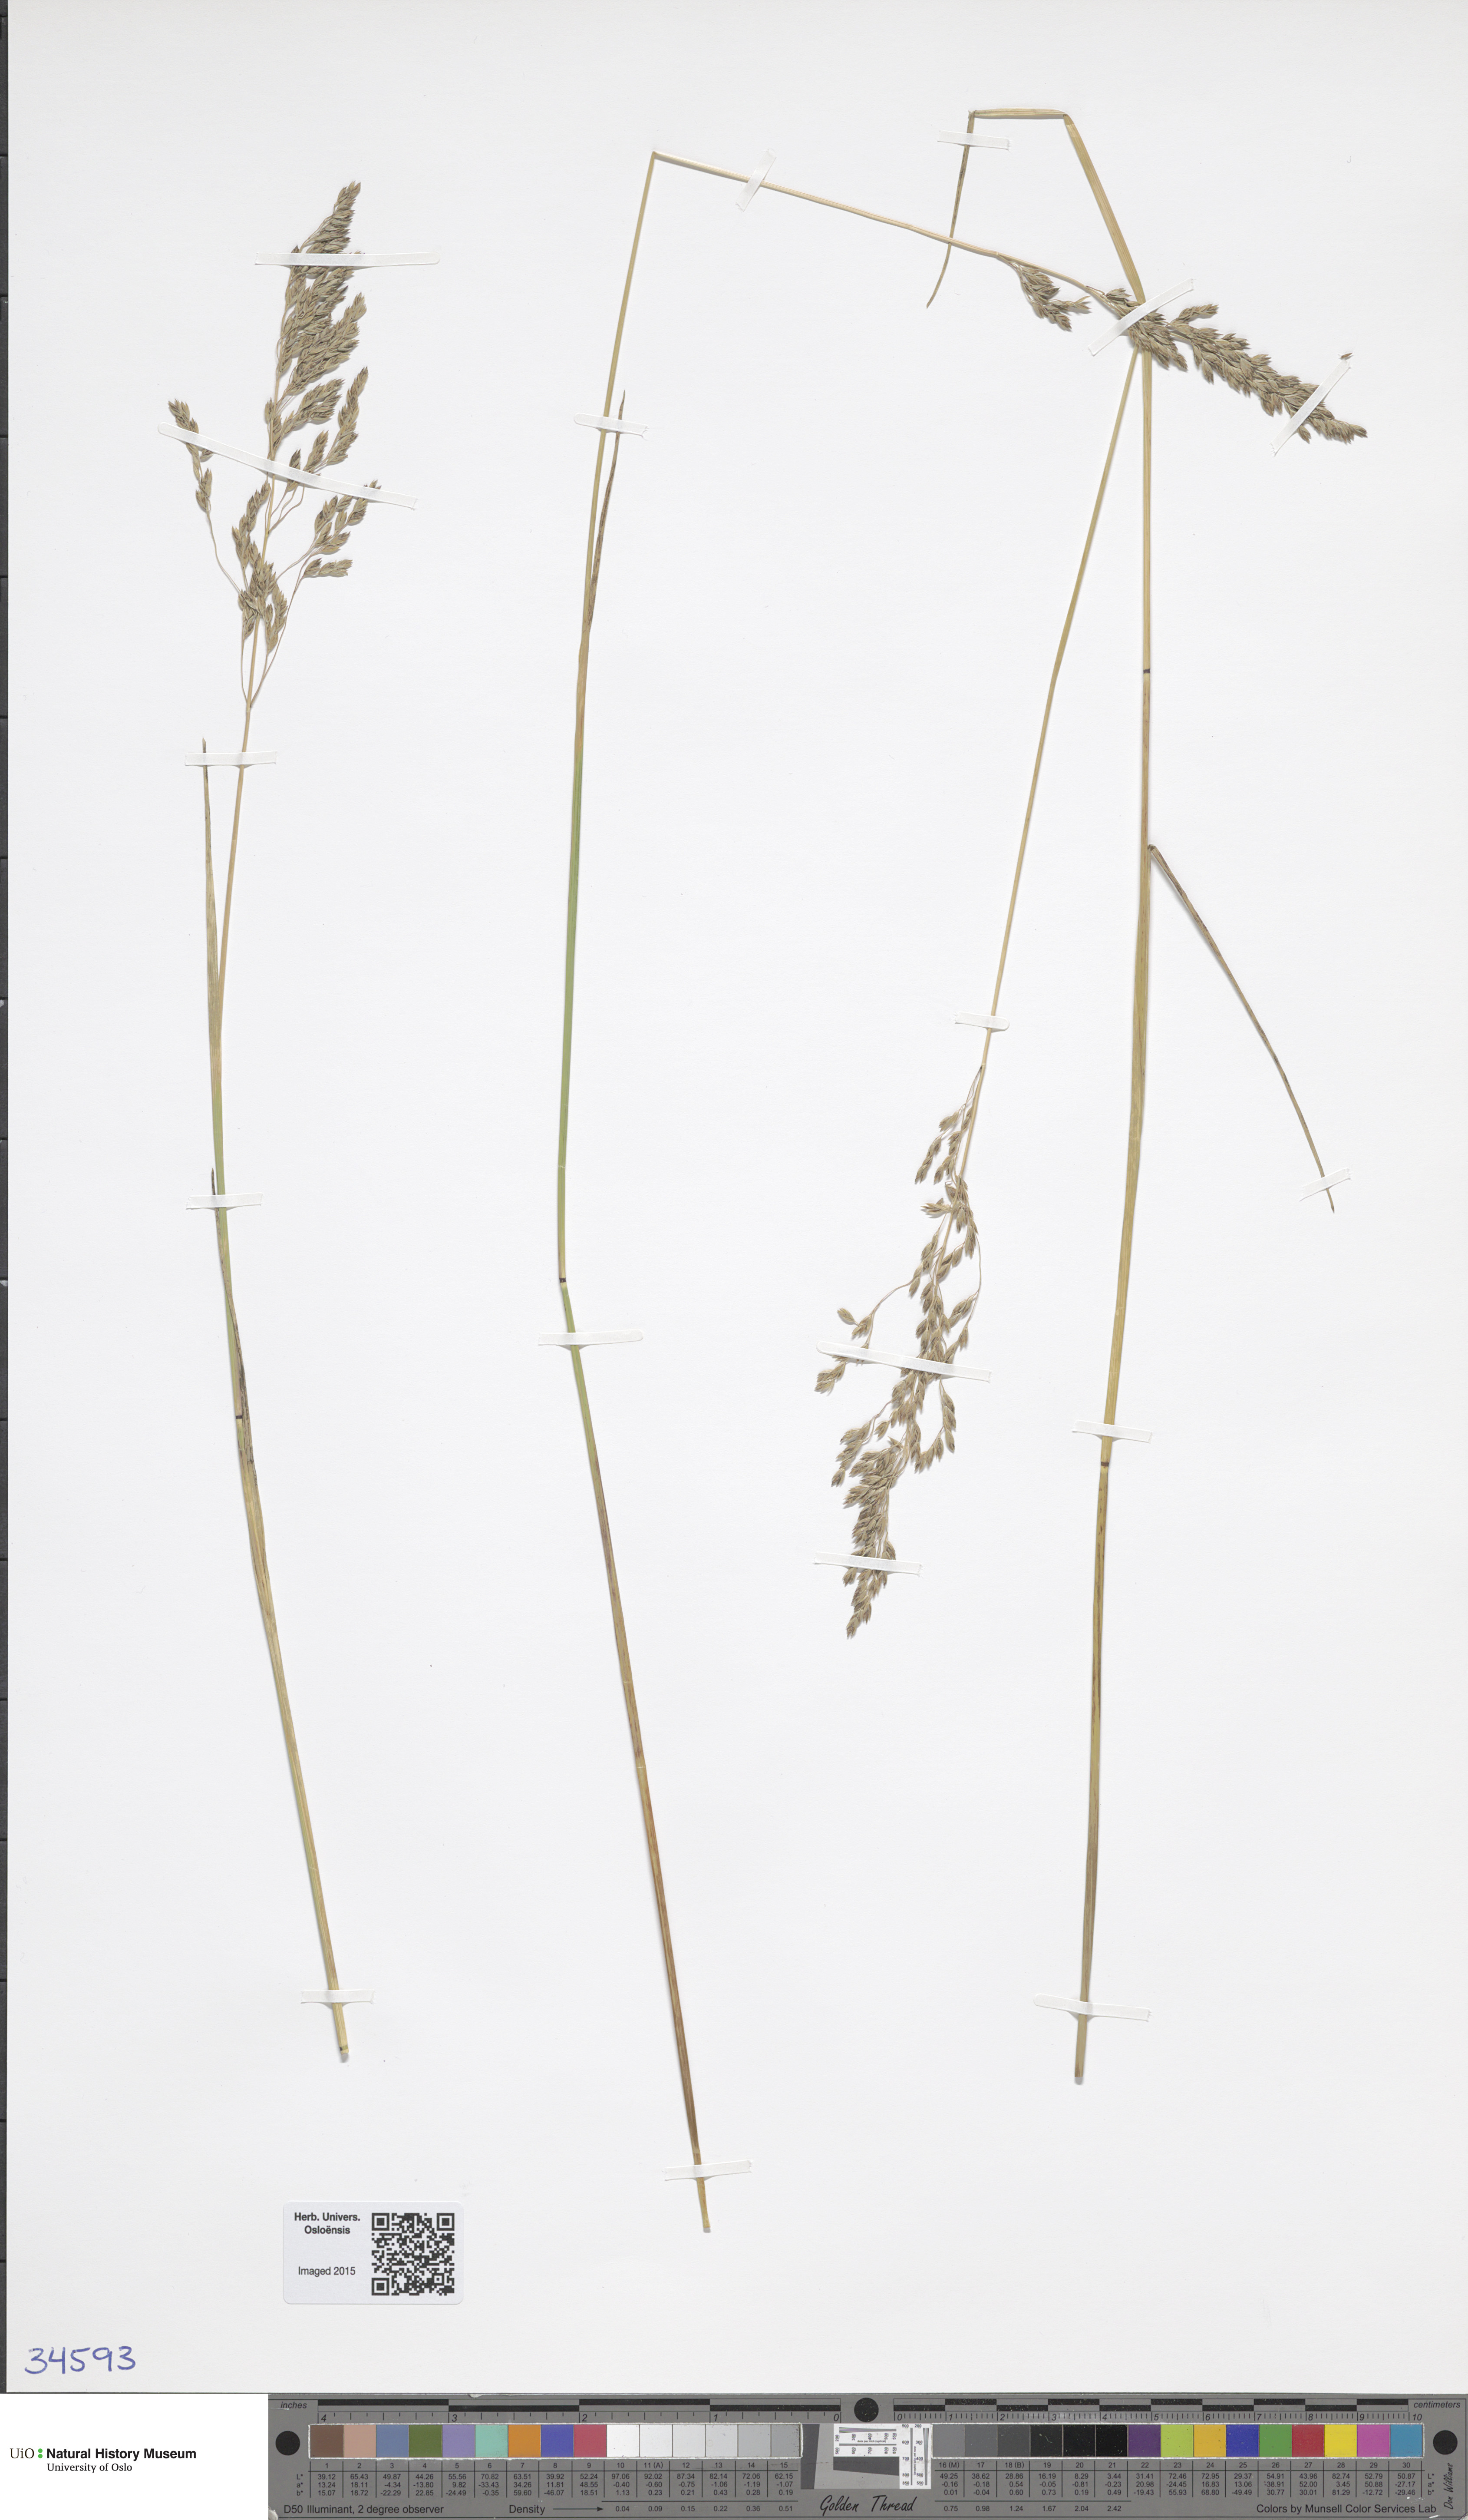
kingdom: Plantae
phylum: Tracheophyta
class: Liliopsida
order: Poales
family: Poaceae
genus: Poa
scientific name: Poa angustifolia
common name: Narrow-leaved meadow-grass
